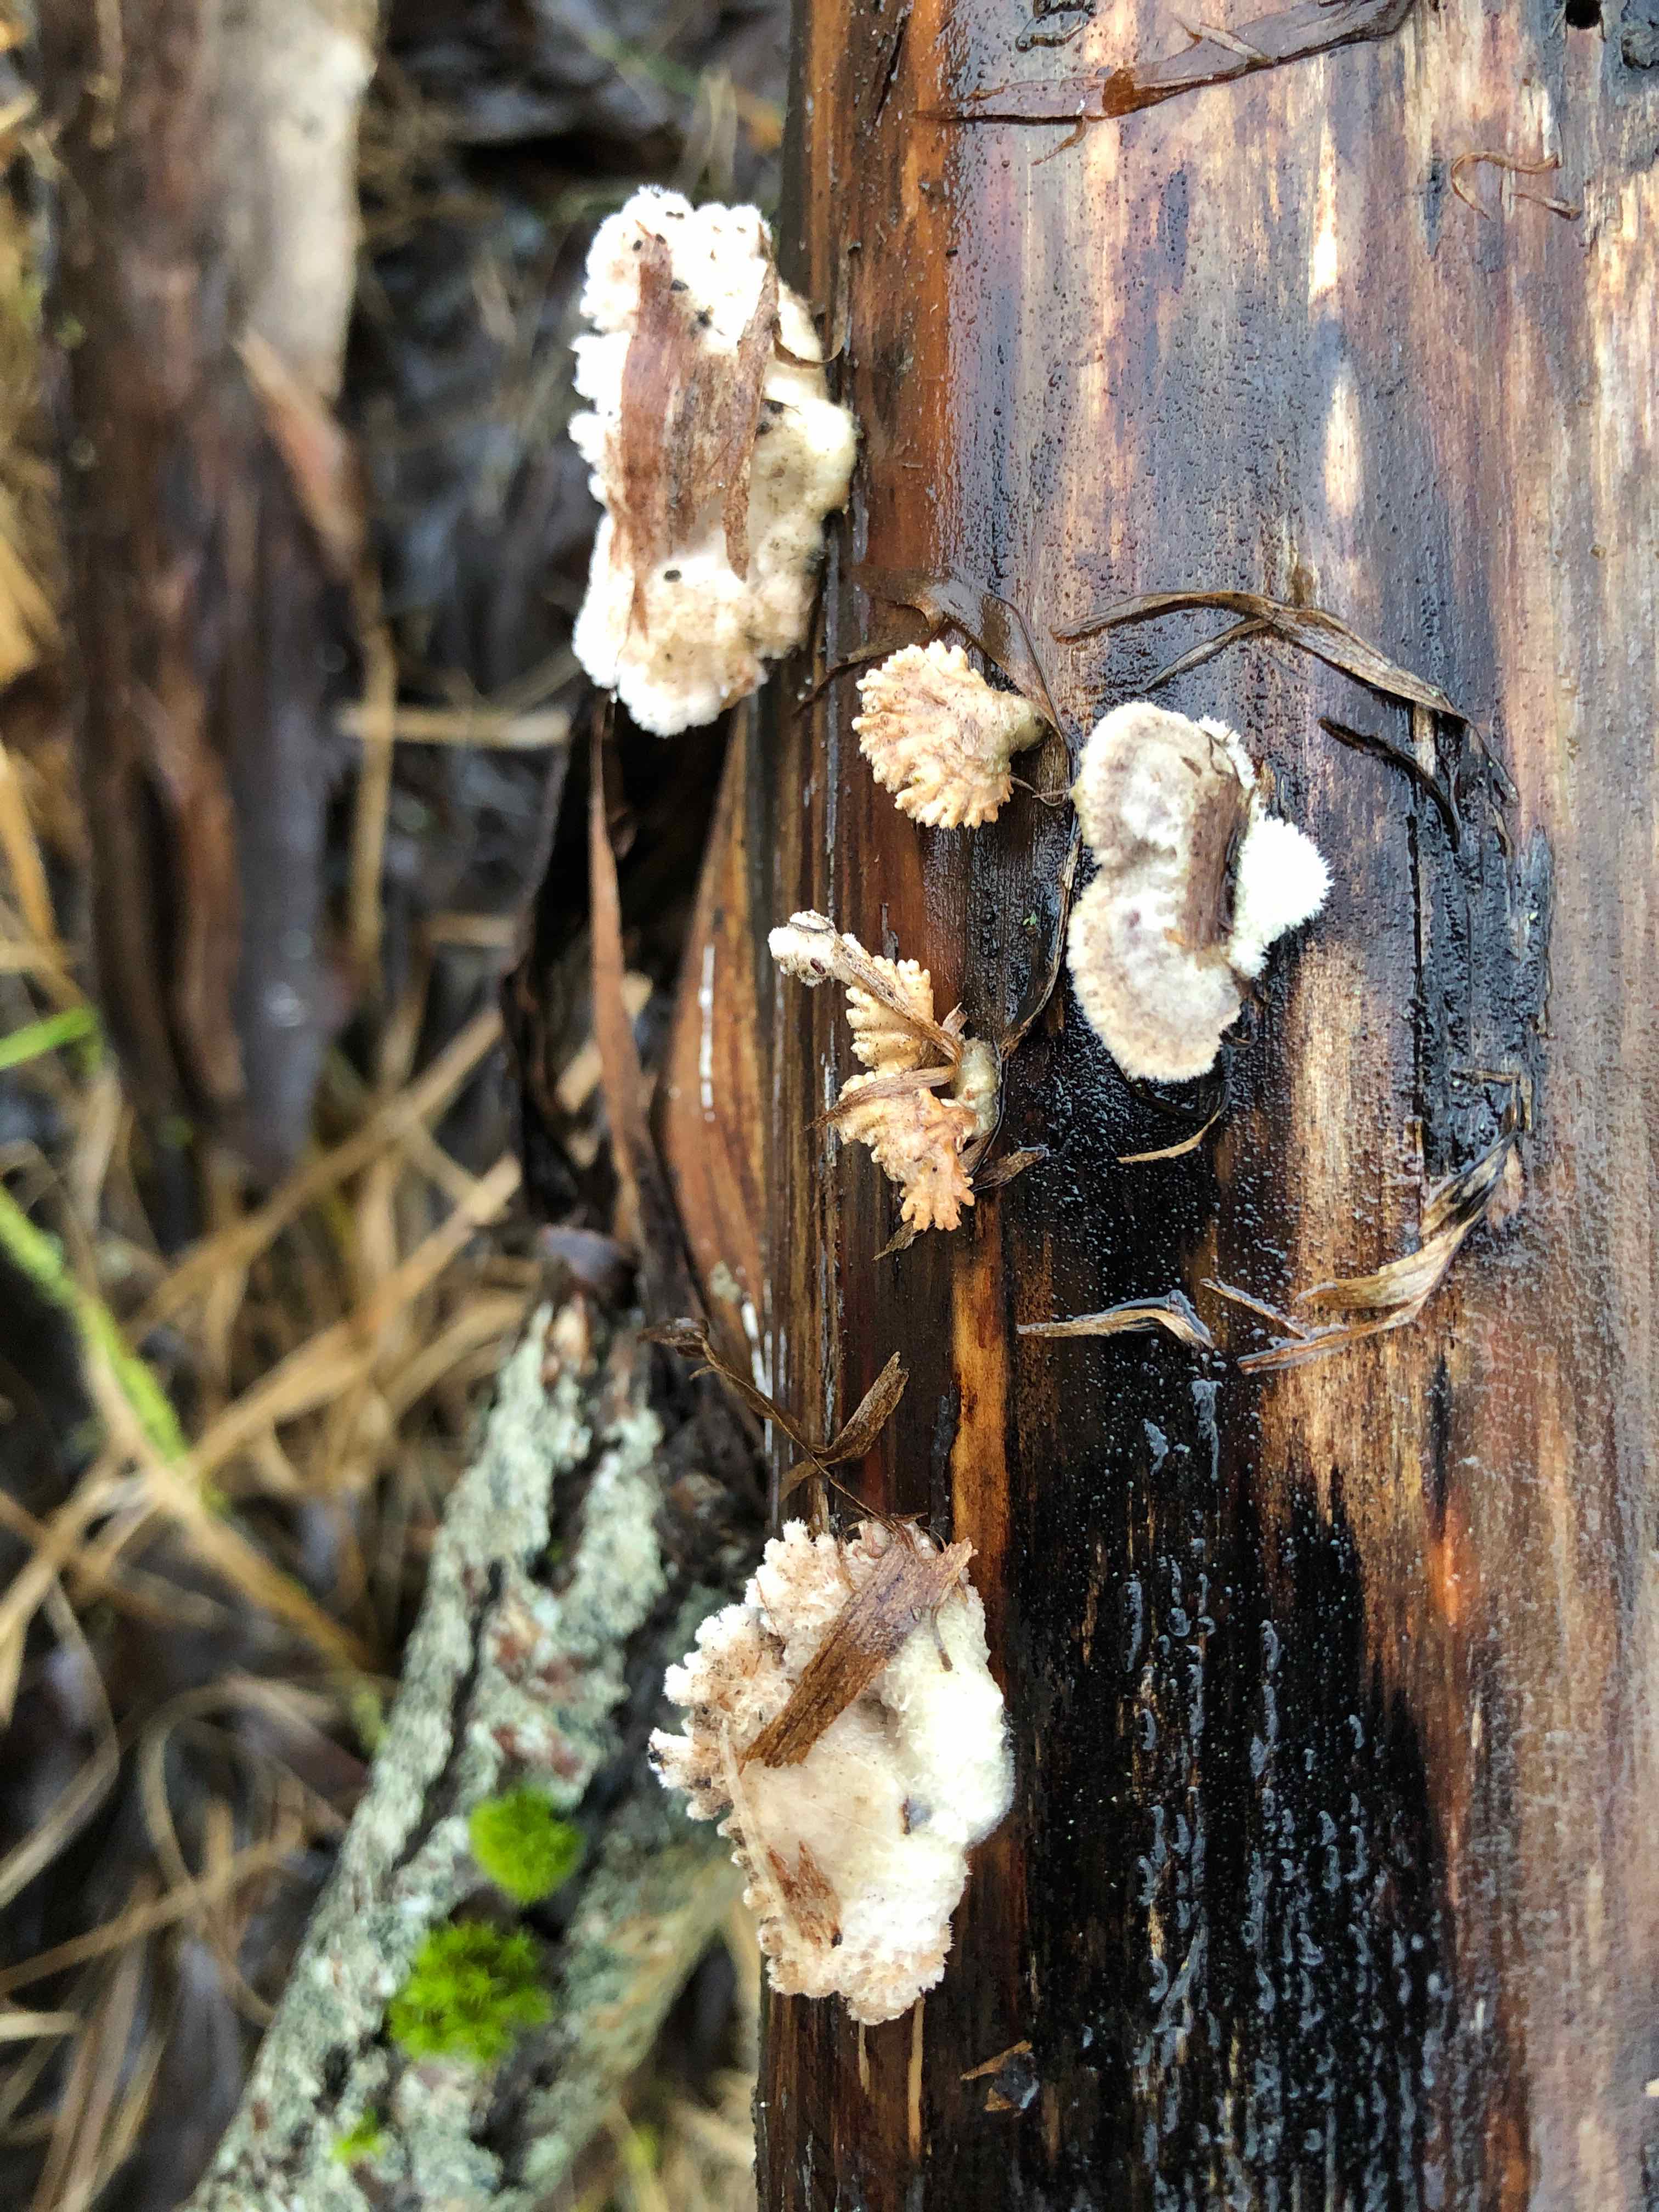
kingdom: Fungi
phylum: Basidiomycota
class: Agaricomycetes
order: Agaricales
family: Schizophyllaceae
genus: Schizophyllum
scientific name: Schizophyllum commune
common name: kløvblad
